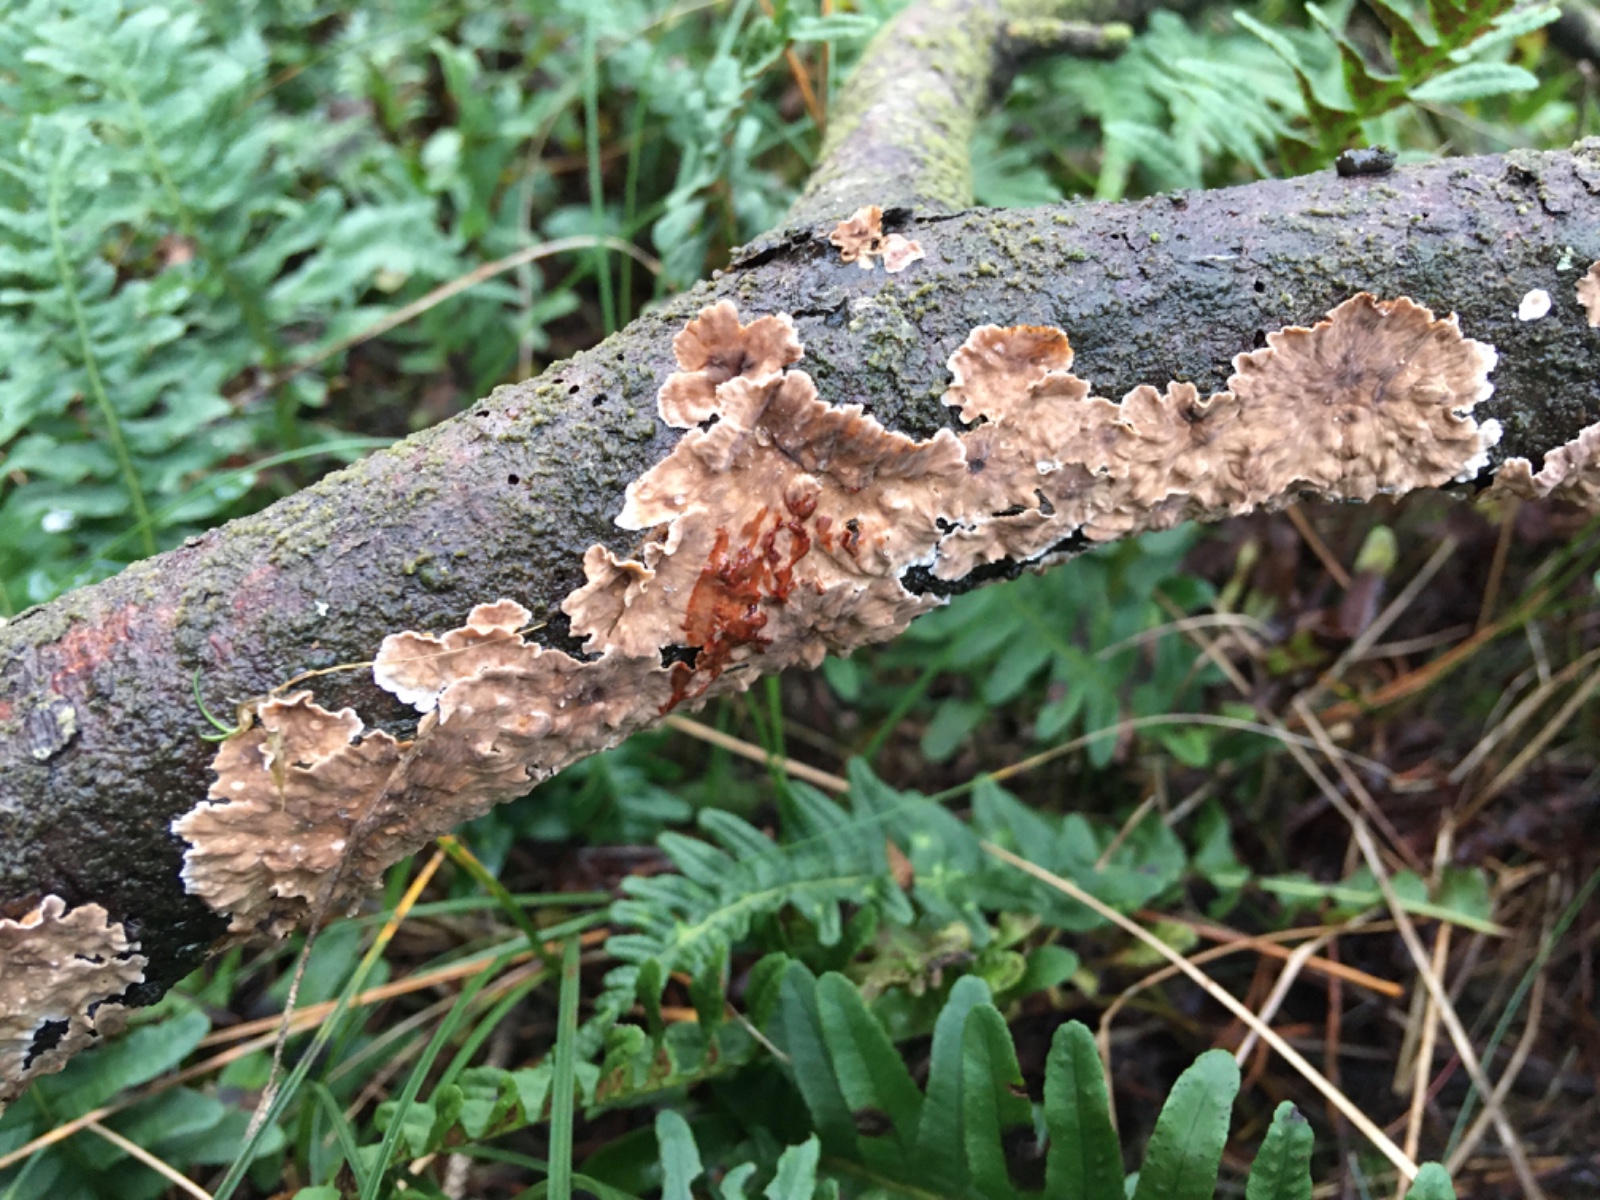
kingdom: Fungi
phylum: Basidiomycota
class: Agaricomycetes
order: Russulales
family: Stereaceae
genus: Stereum
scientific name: Stereum sanguinolentum
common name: blødende lædersvamp
